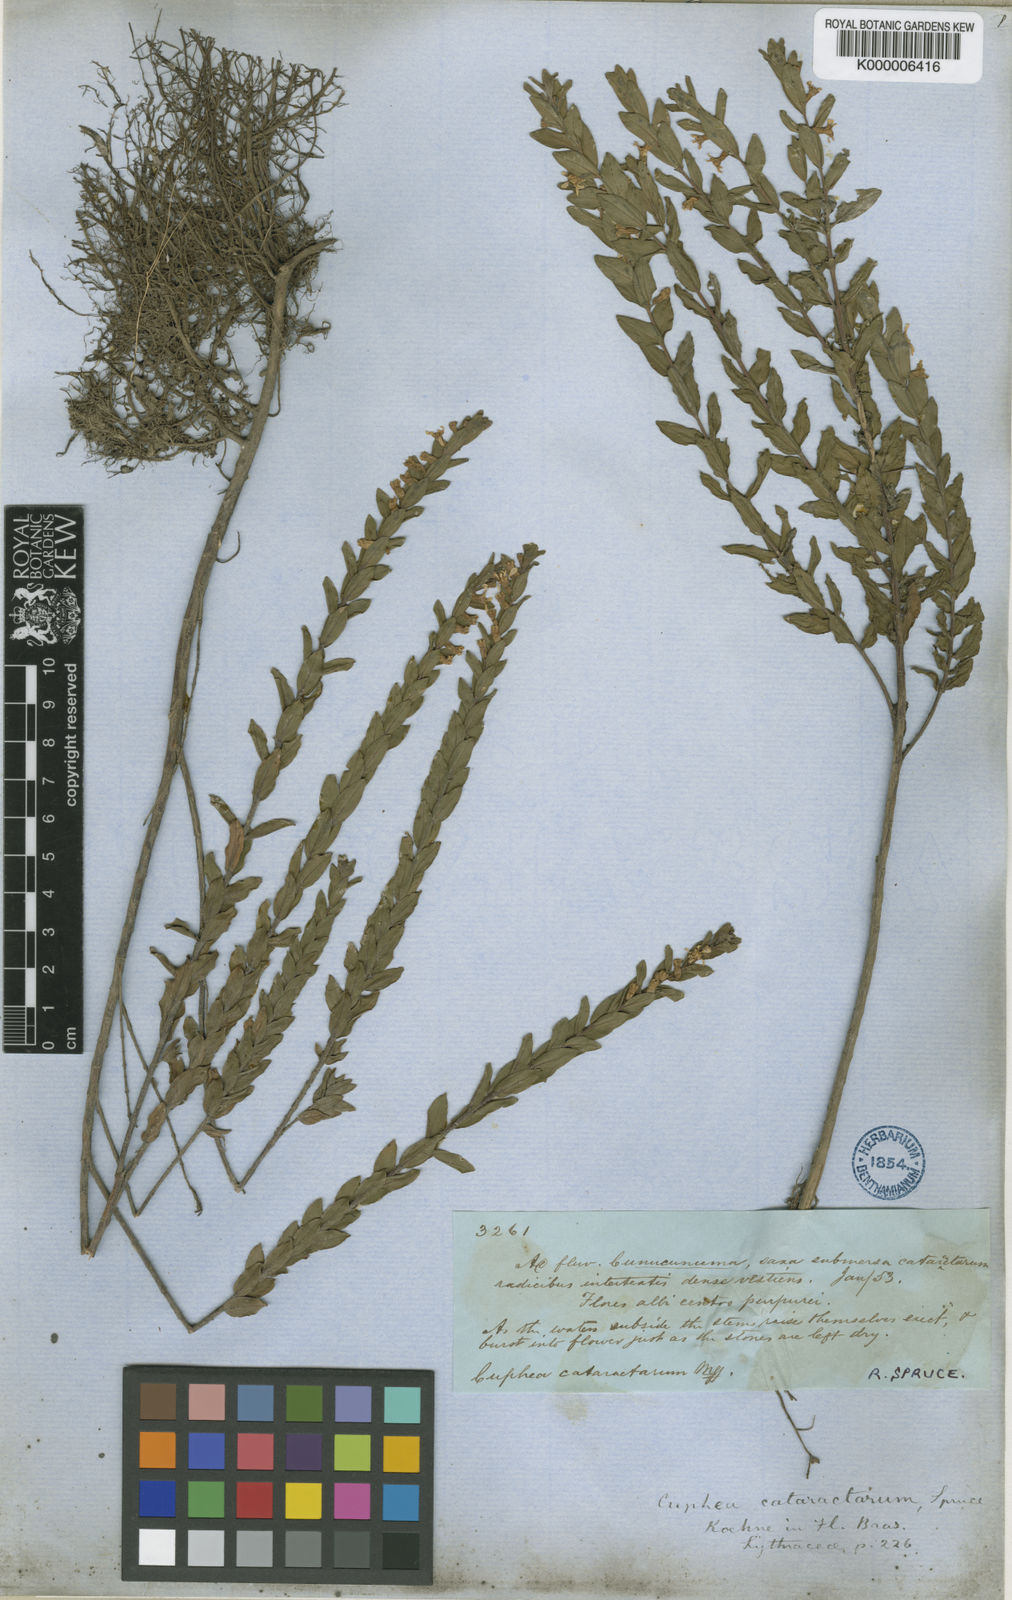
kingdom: Plantae
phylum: Tracheophyta
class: Magnoliopsida
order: Myrtales
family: Lythraceae
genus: Cuphea
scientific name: Cuphea cataractarum
